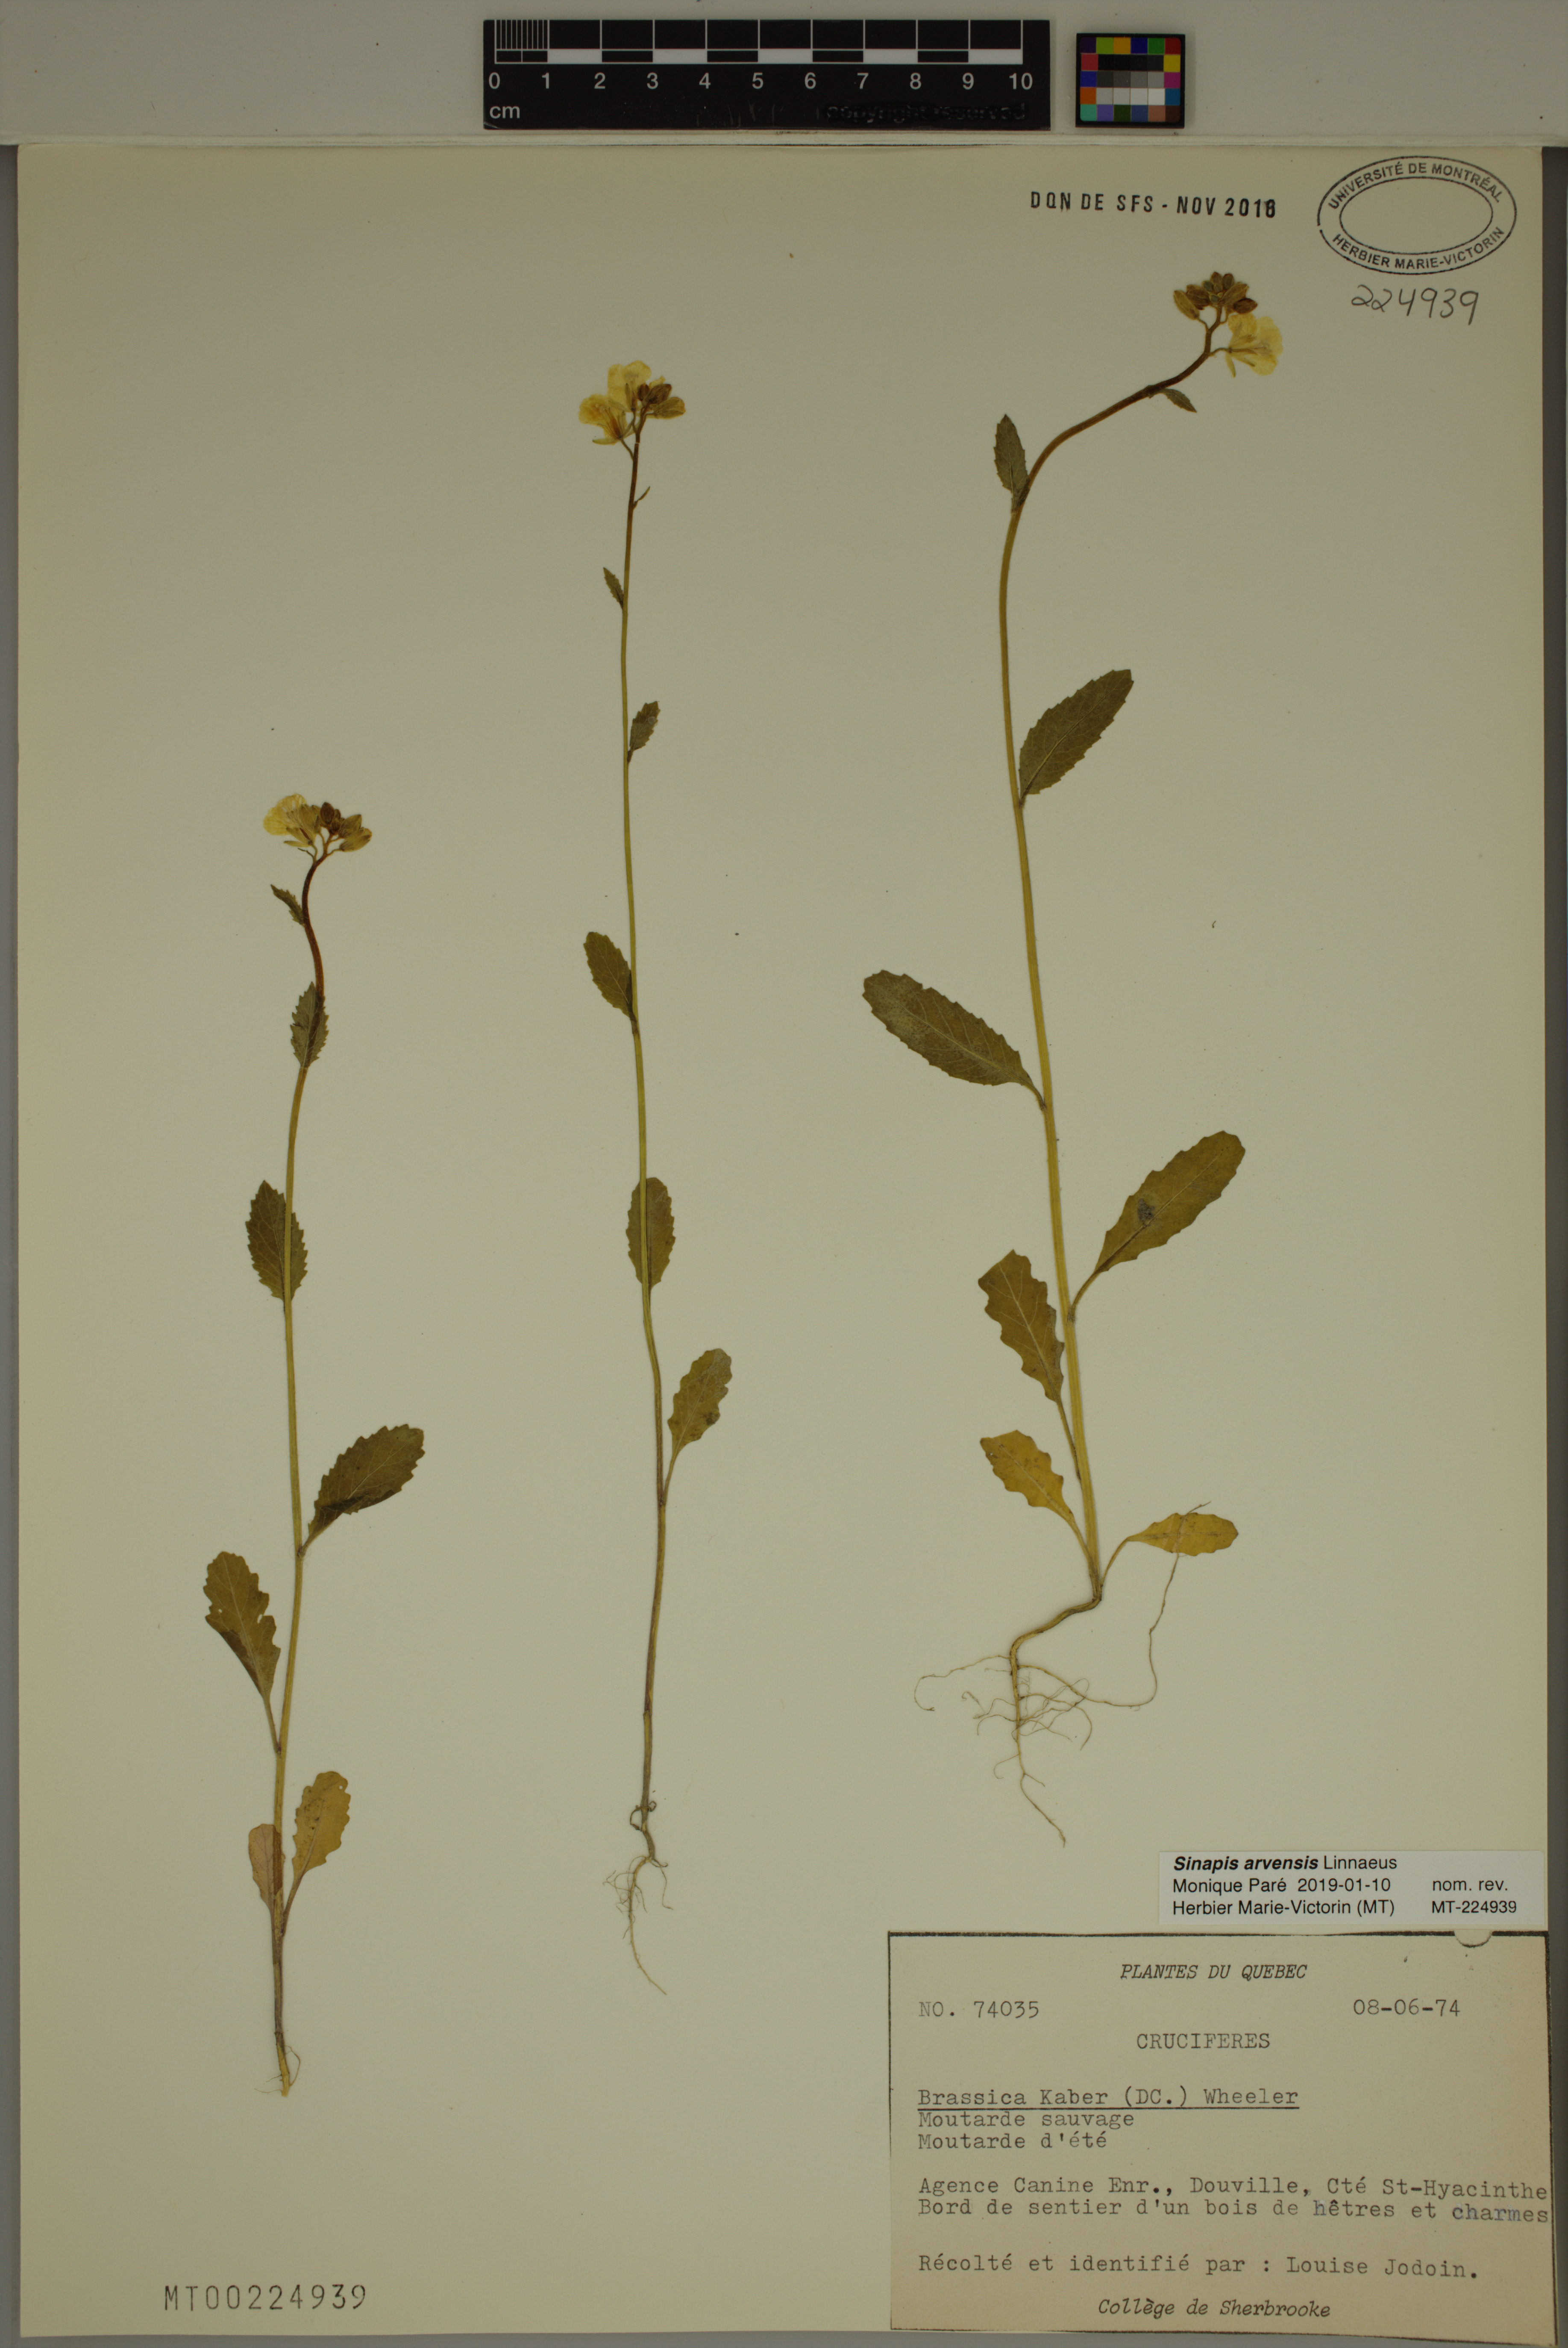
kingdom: Plantae
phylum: Tracheophyta
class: Magnoliopsida
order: Brassicales
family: Brassicaceae
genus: Sinapis
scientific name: Sinapis arvensis
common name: Charlock
